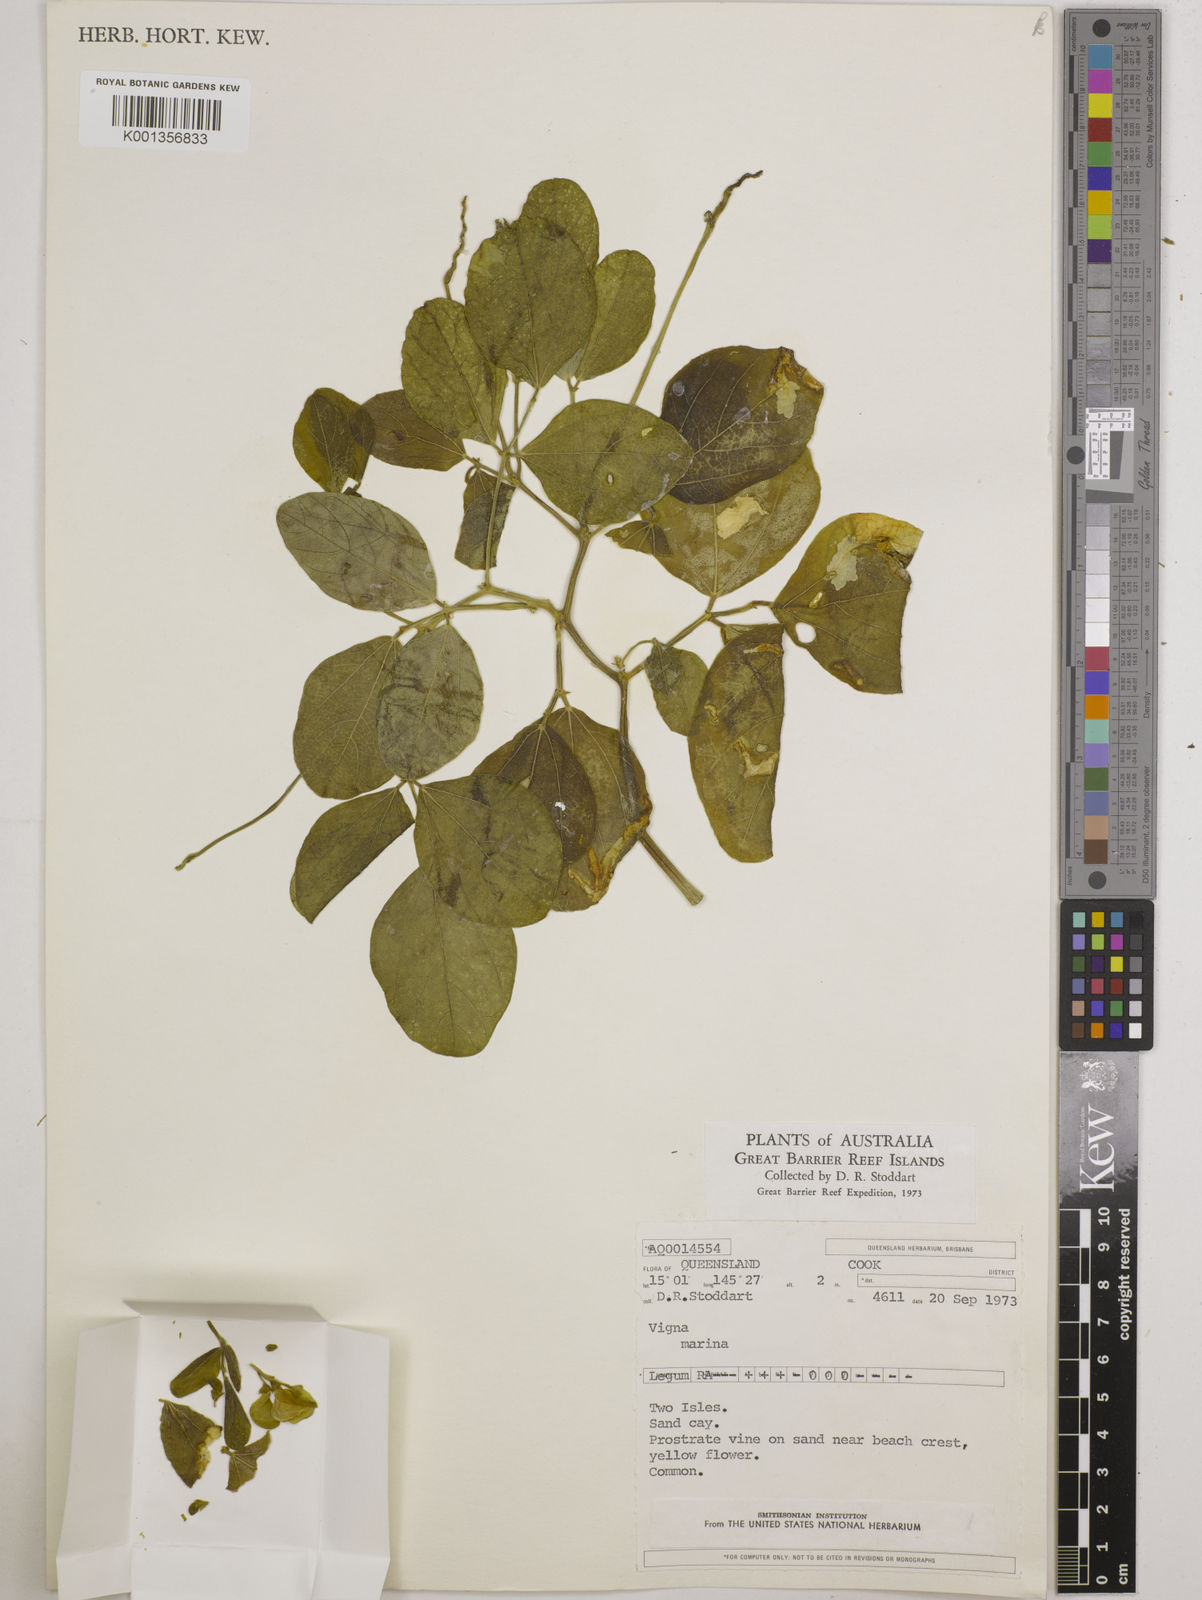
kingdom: Plantae
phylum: Tracheophyta
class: Magnoliopsida
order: Fabales
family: Fabaceae
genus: Vigna
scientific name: Vigna marina
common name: Dune-bean
